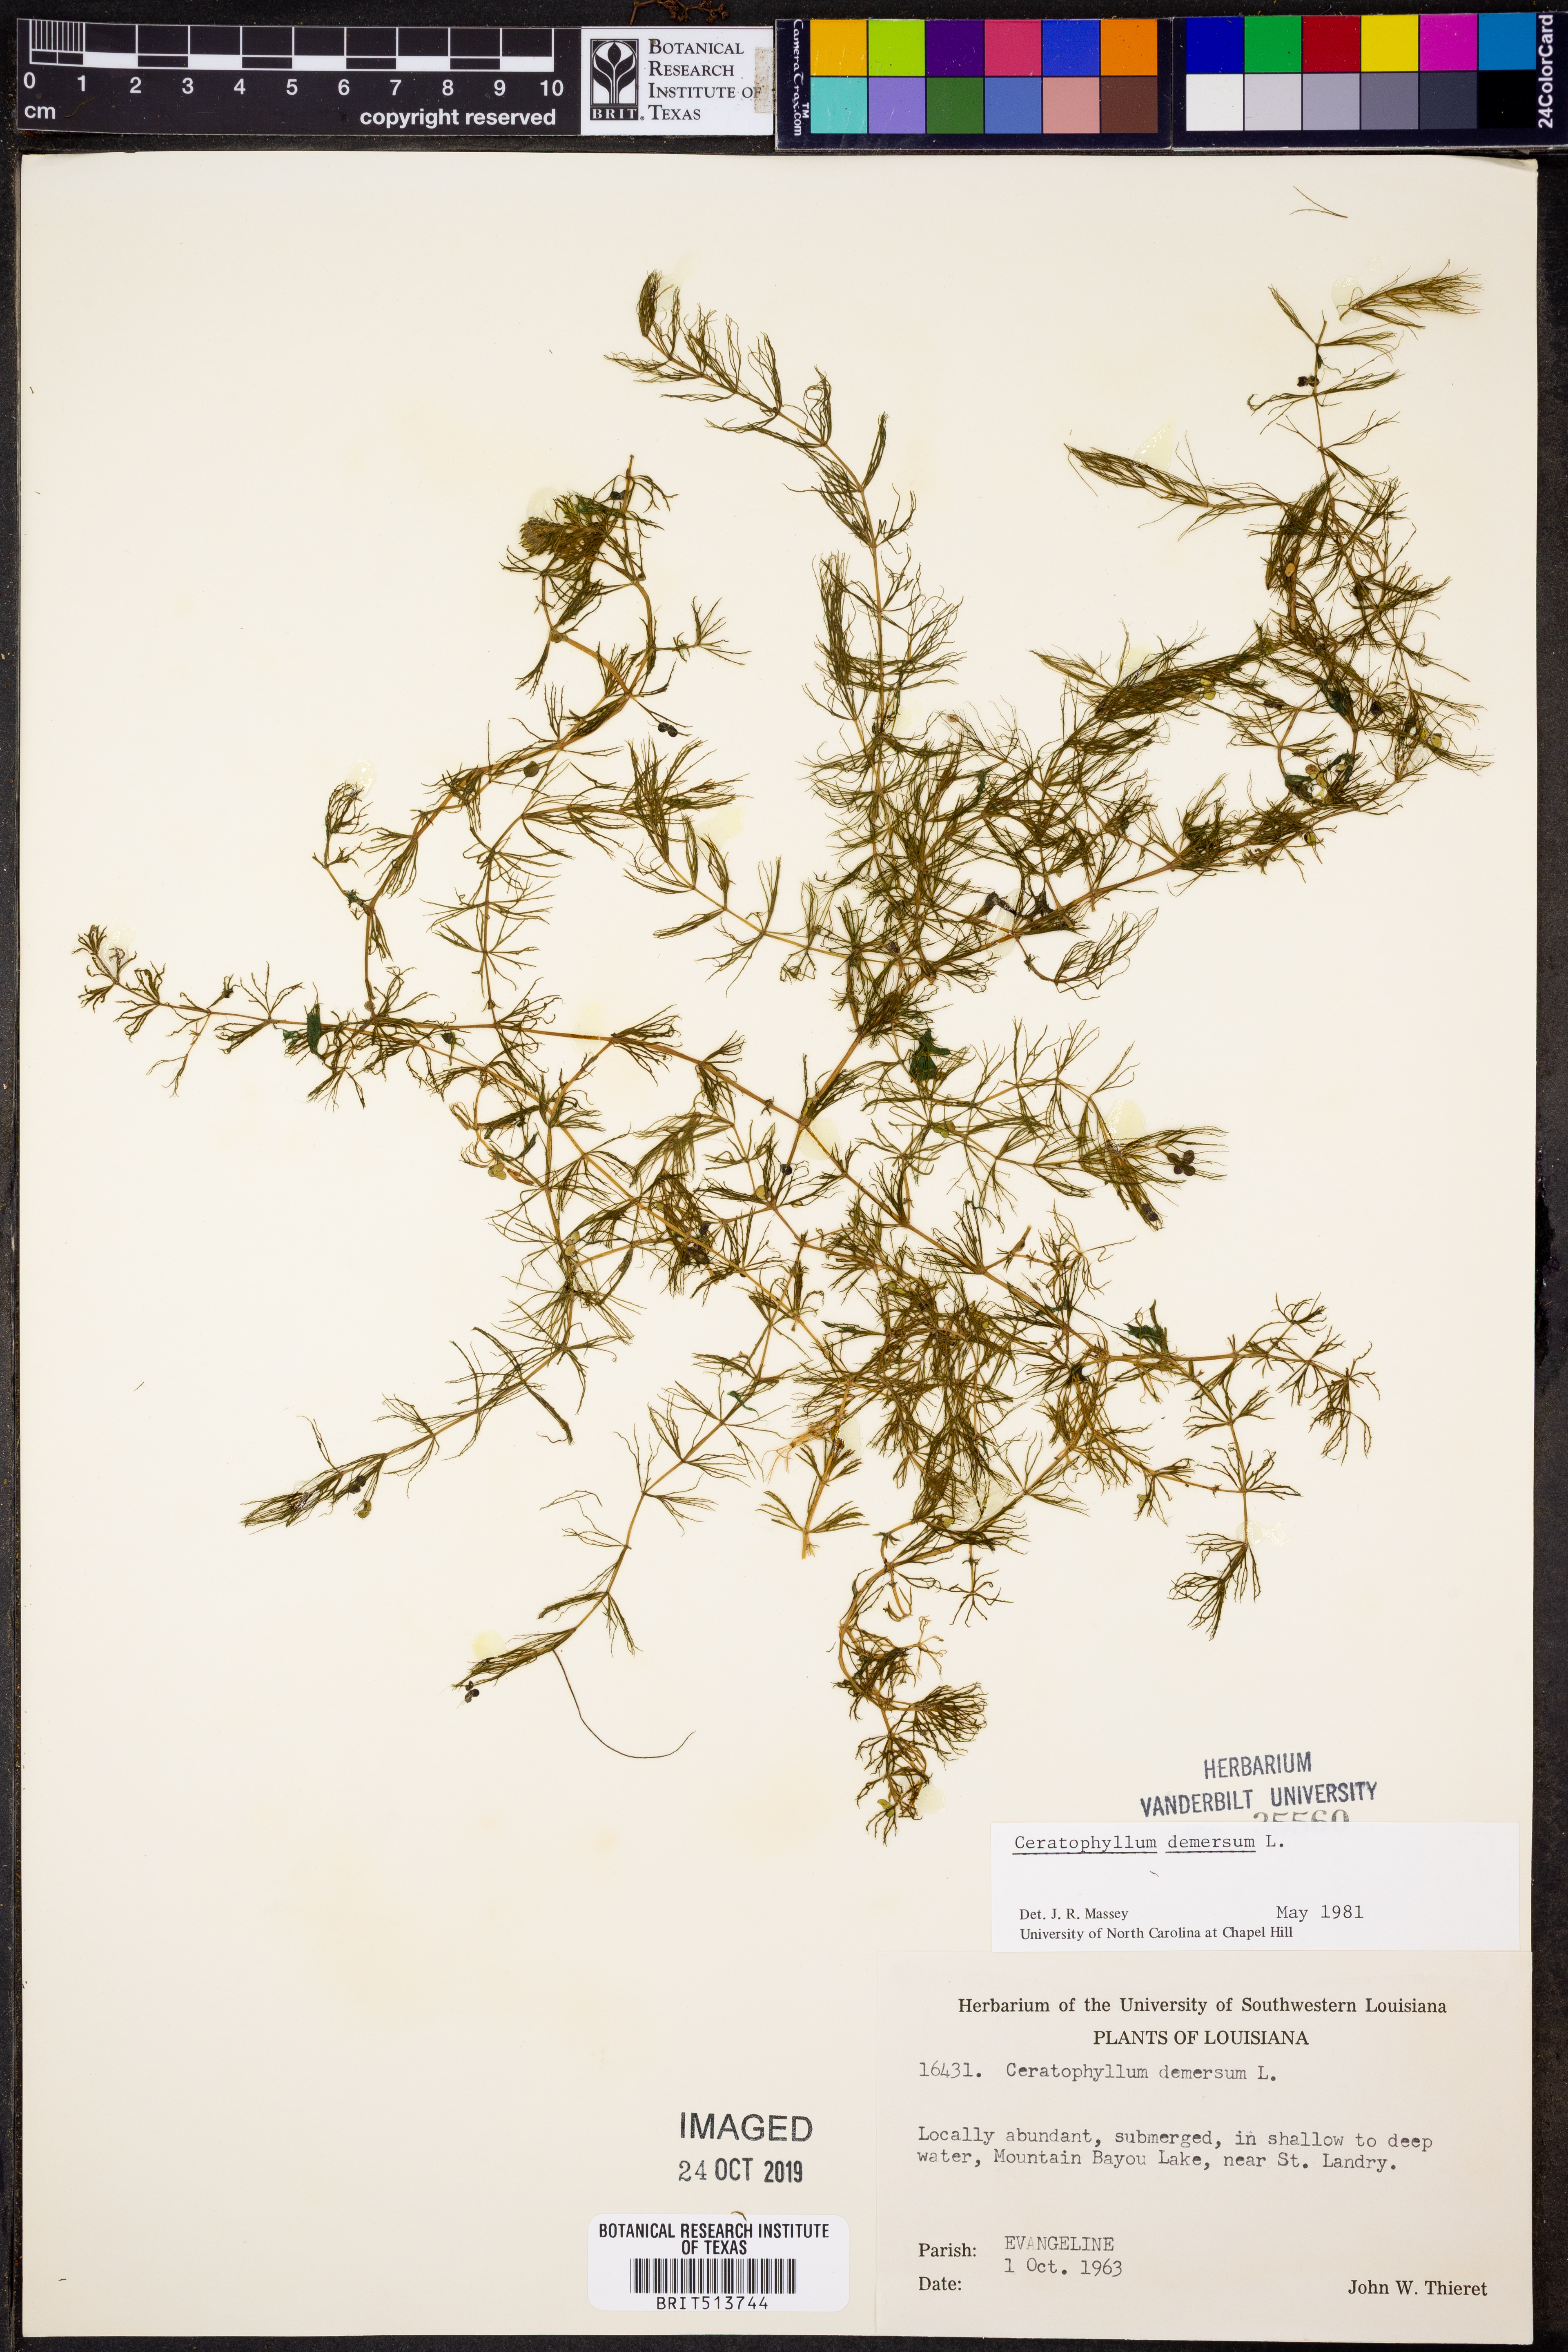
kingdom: Plantae
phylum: Tracheophyta
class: Magnoliopsida
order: Ceratophyllales
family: Ceratophyllaceae
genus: Ceratophyllum
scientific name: Ceratophyllum demersum
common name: Rigid hornwort
